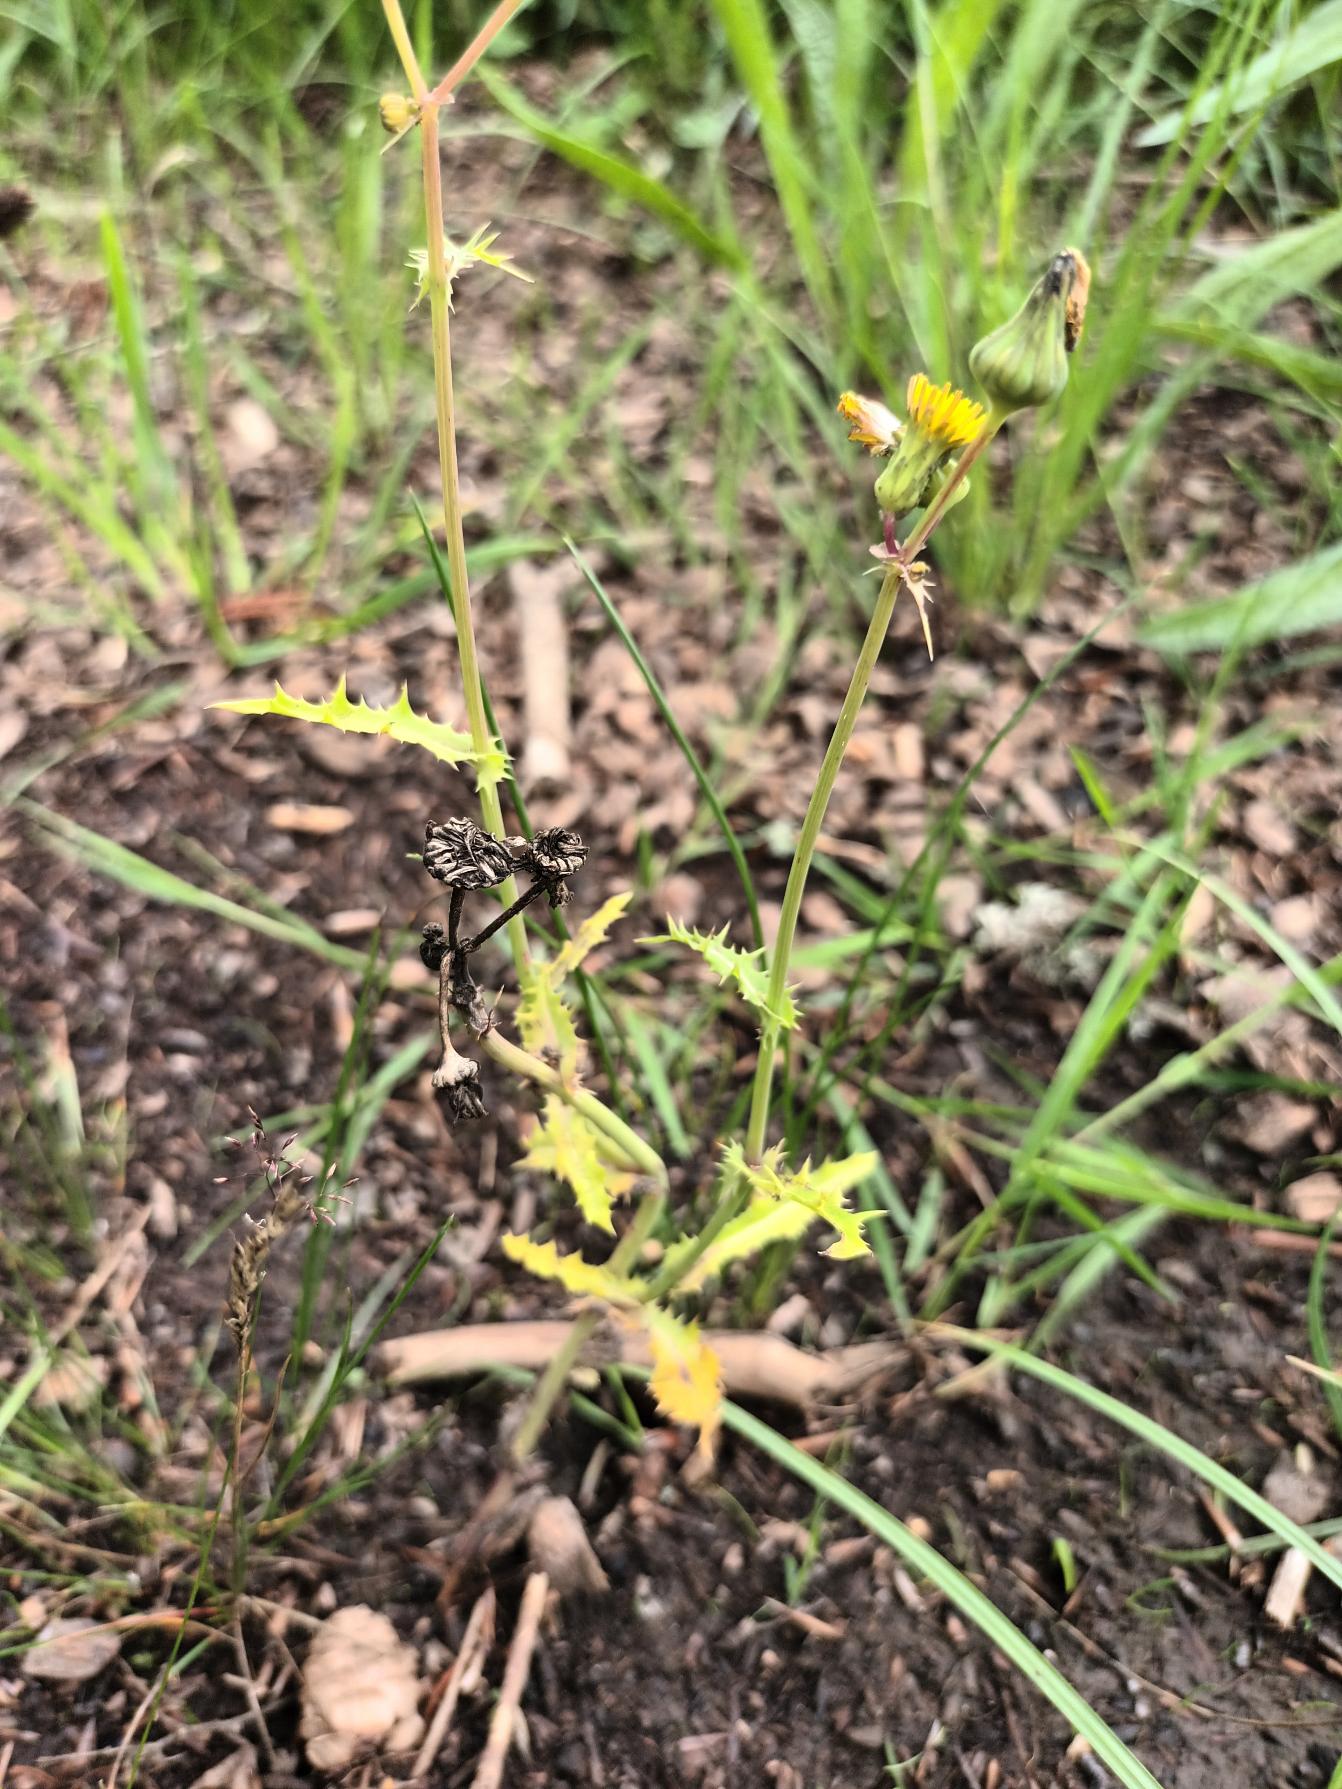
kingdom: Plantae
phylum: Tracheophyta
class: Magnoliopsida
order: Asterales
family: Asteraceae
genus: Sonchus
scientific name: Sonchus asper
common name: Ru svinemælk
